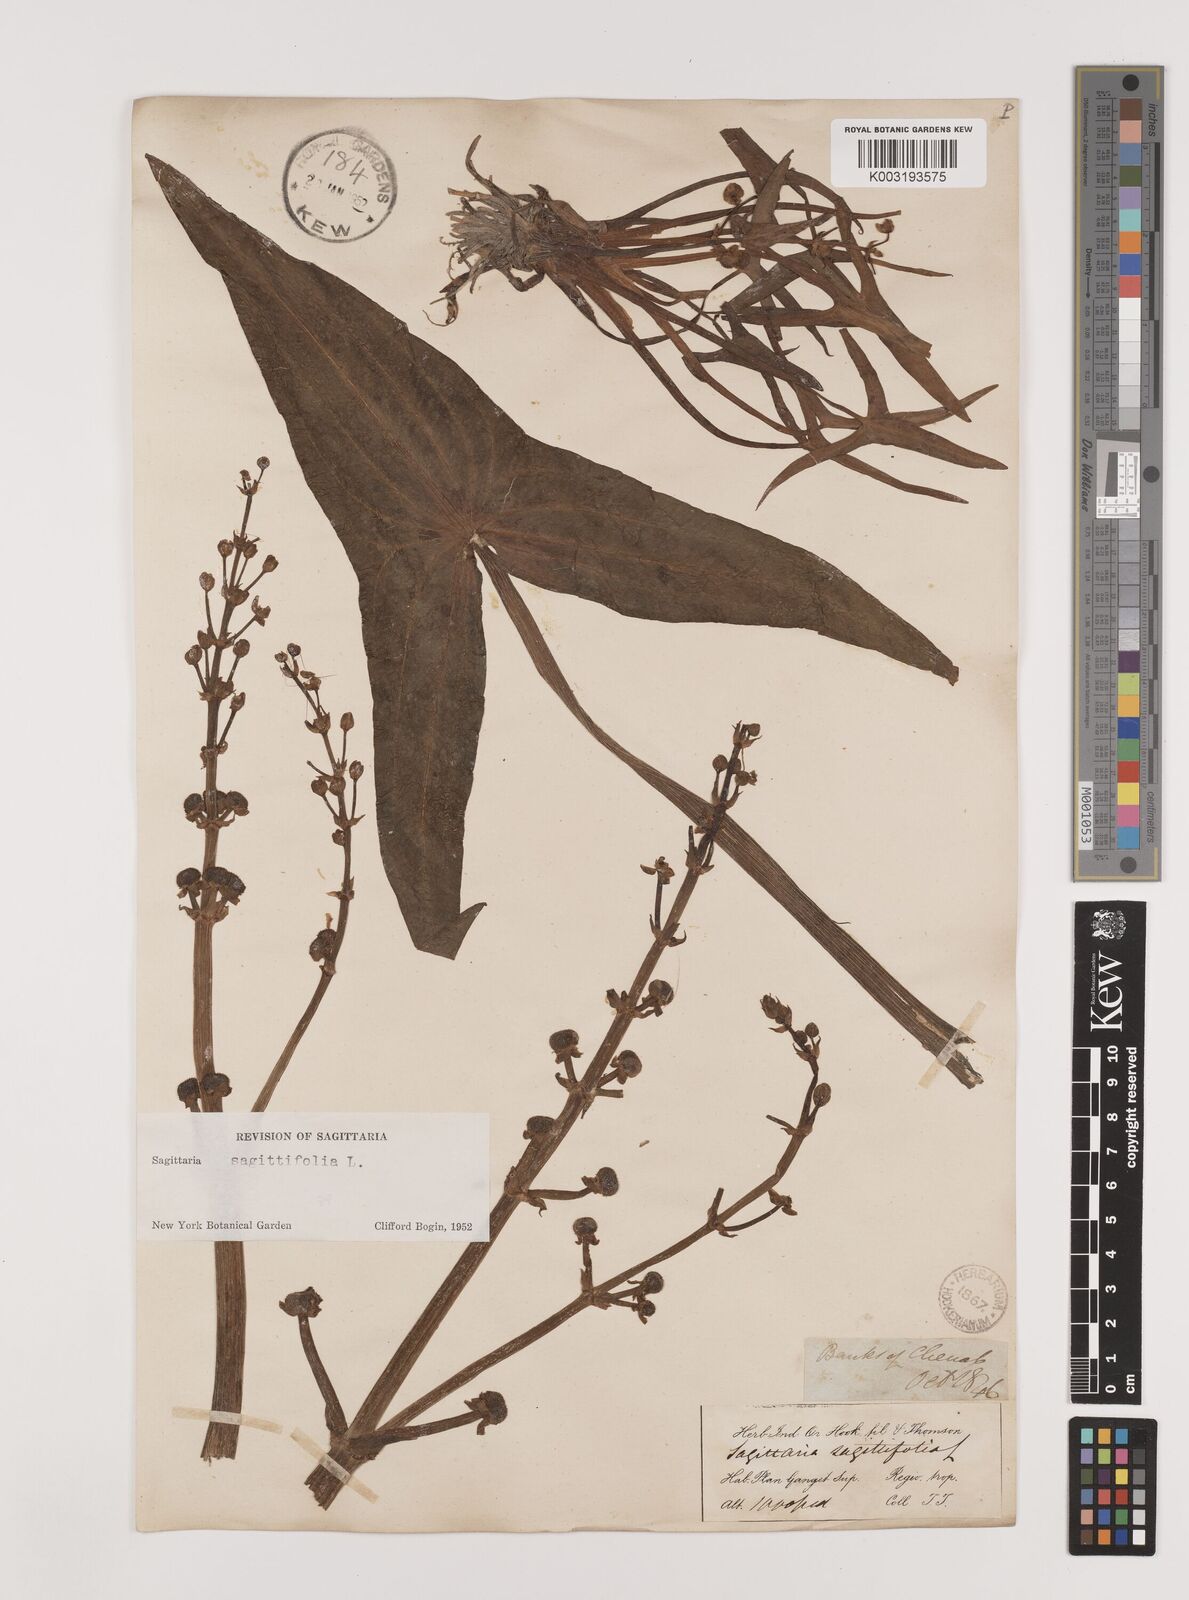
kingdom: Plantae
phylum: Tracheophyta
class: Liliopsida
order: Alismatales
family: Alismataceae
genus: Sagittaria
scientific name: Sagittaria sagittifolia
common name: Arrowhead
